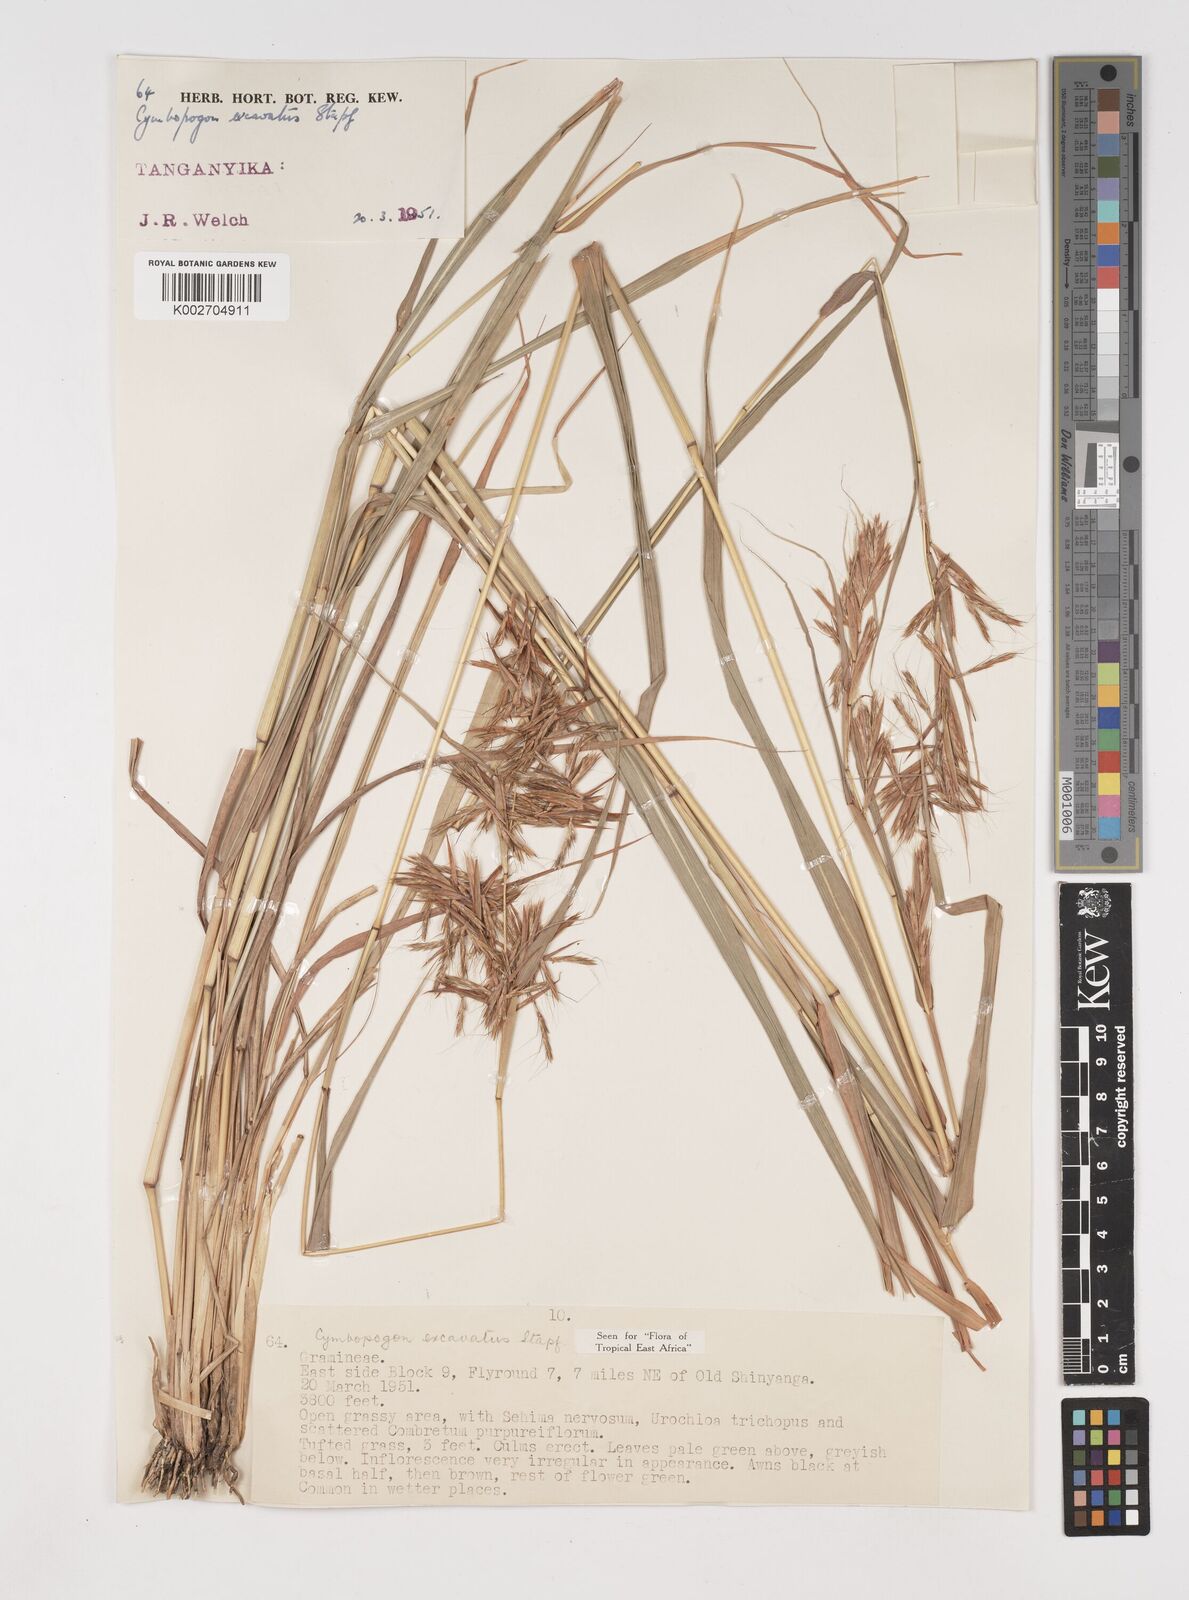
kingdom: Plantae
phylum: Tracheophyta
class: Liliopsida
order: Poales
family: Poaceae
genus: Cymbopogon
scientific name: Cymbopogon caesius
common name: Kachi grass
